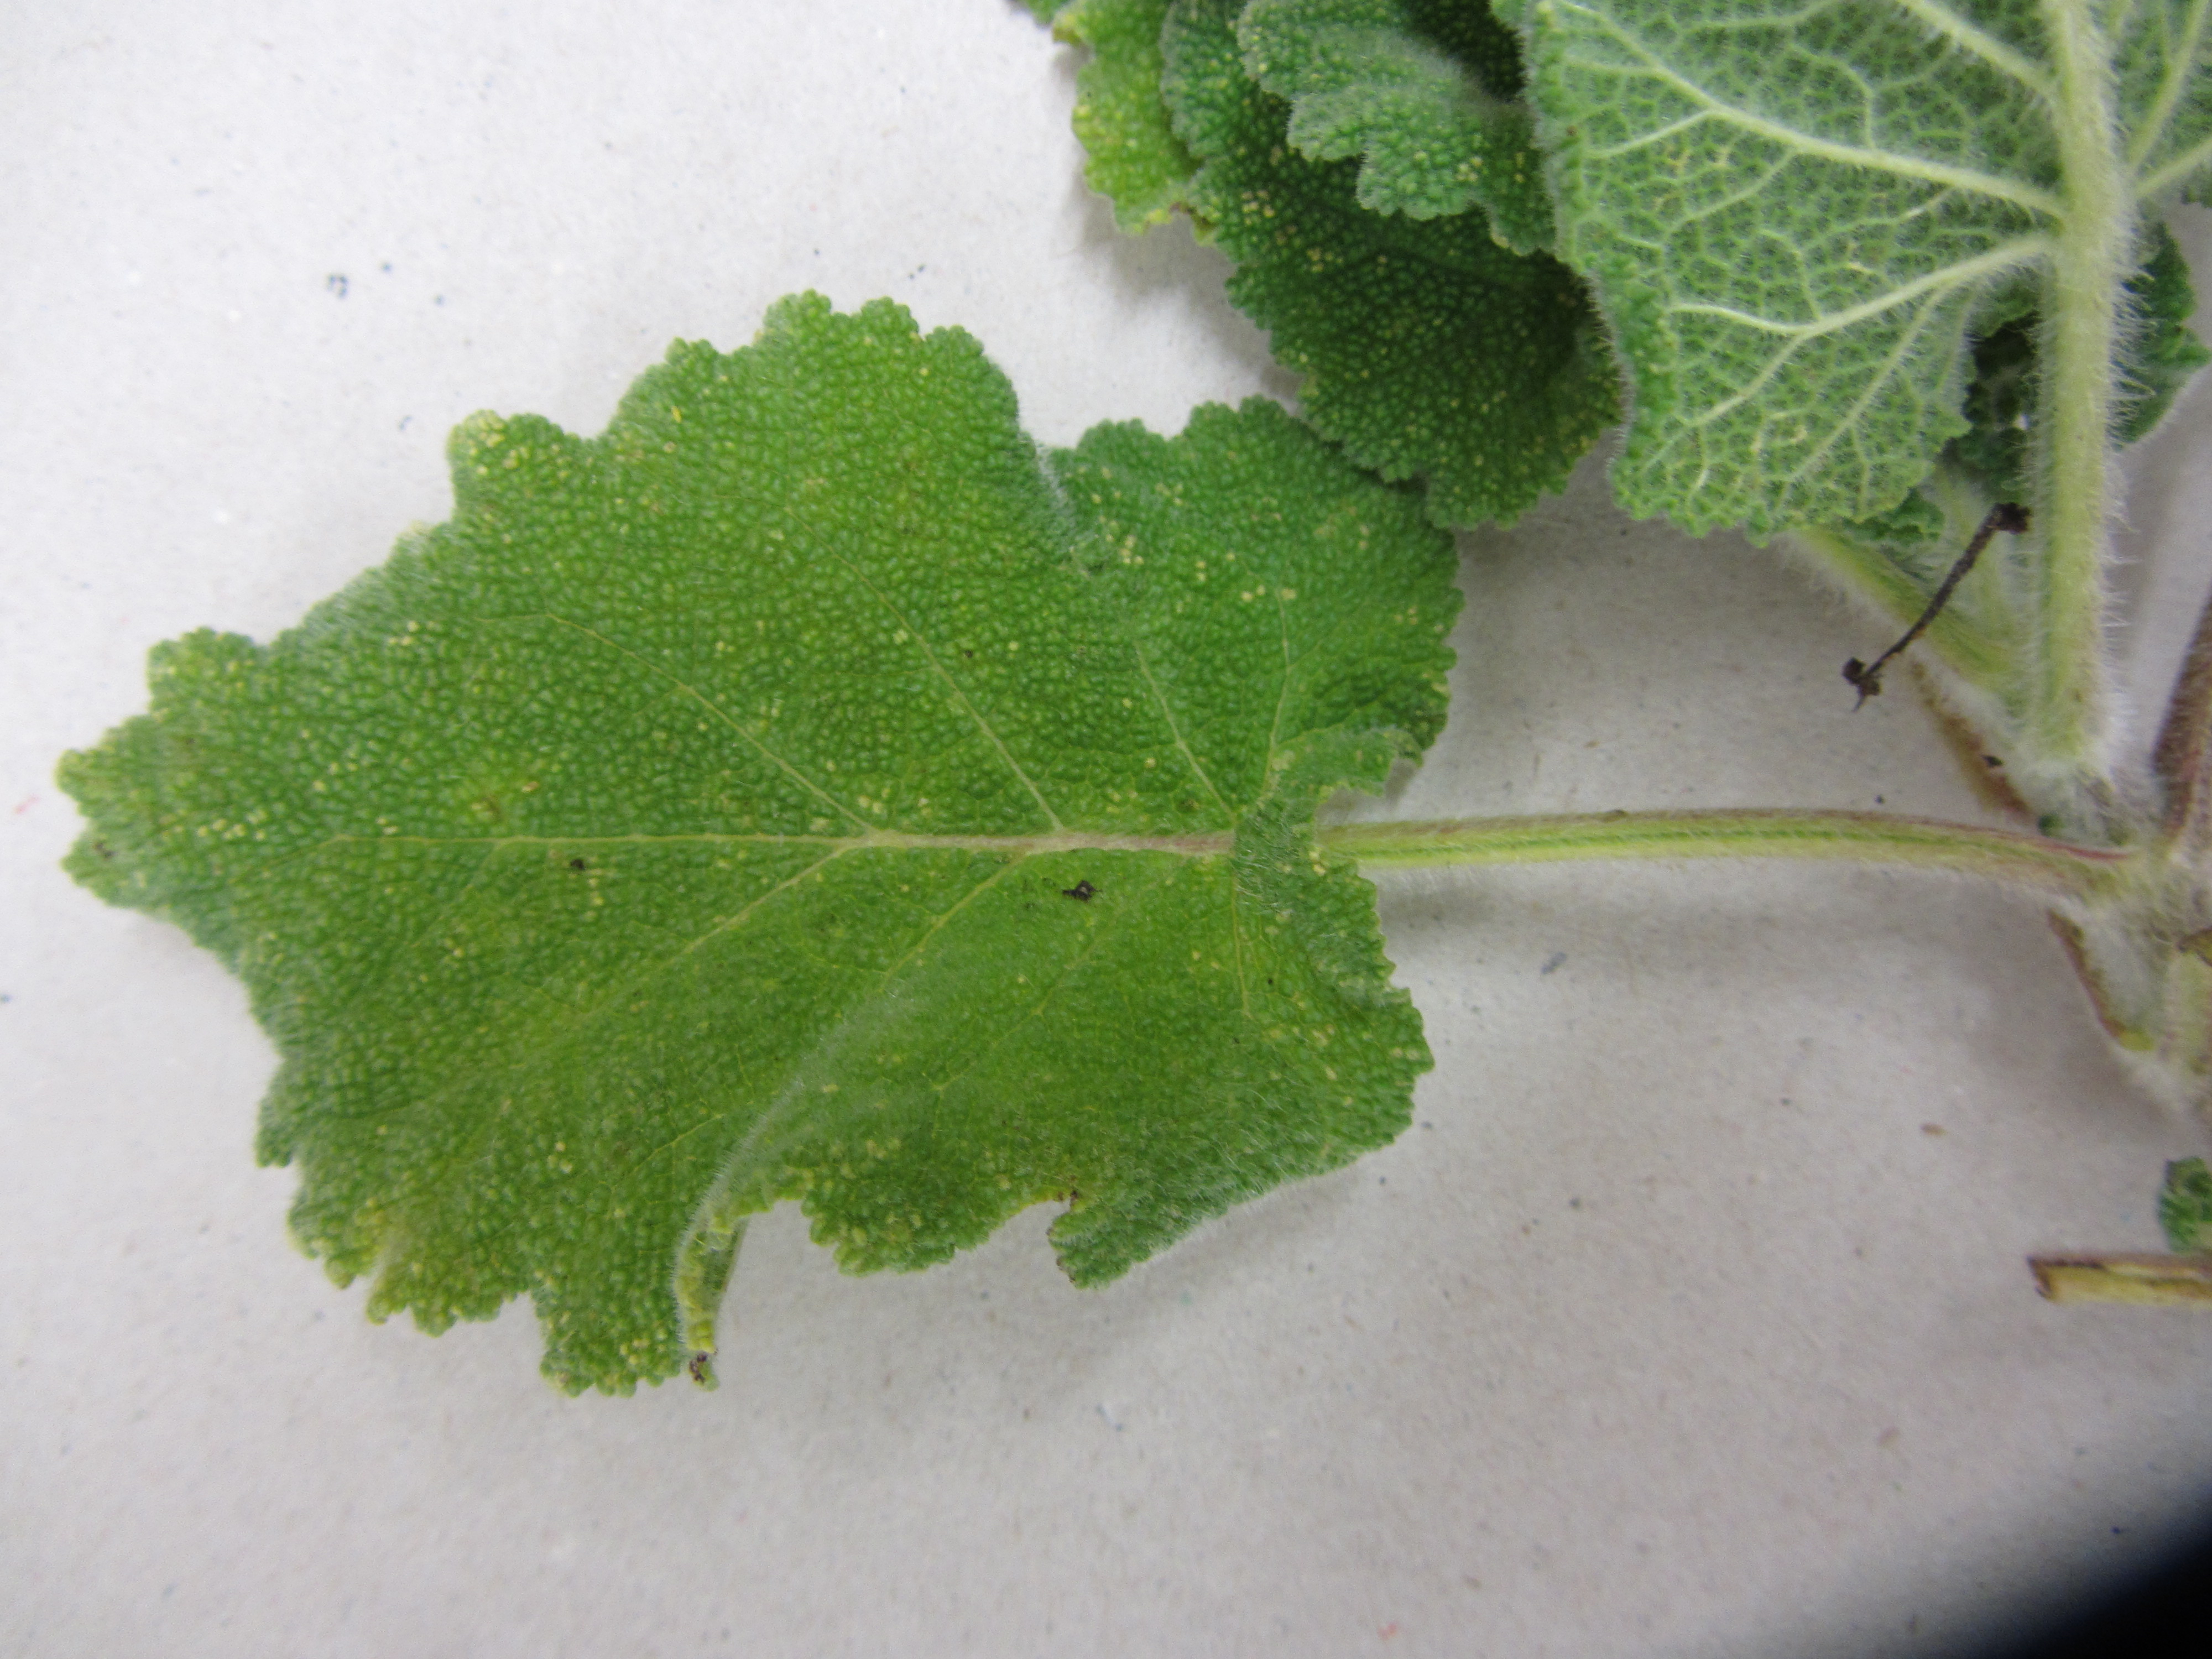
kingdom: Plantae
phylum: Tracheophyta
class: Magnoliopsida
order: Lamiales
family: Lamiaceae
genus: Salvia
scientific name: Salvia
